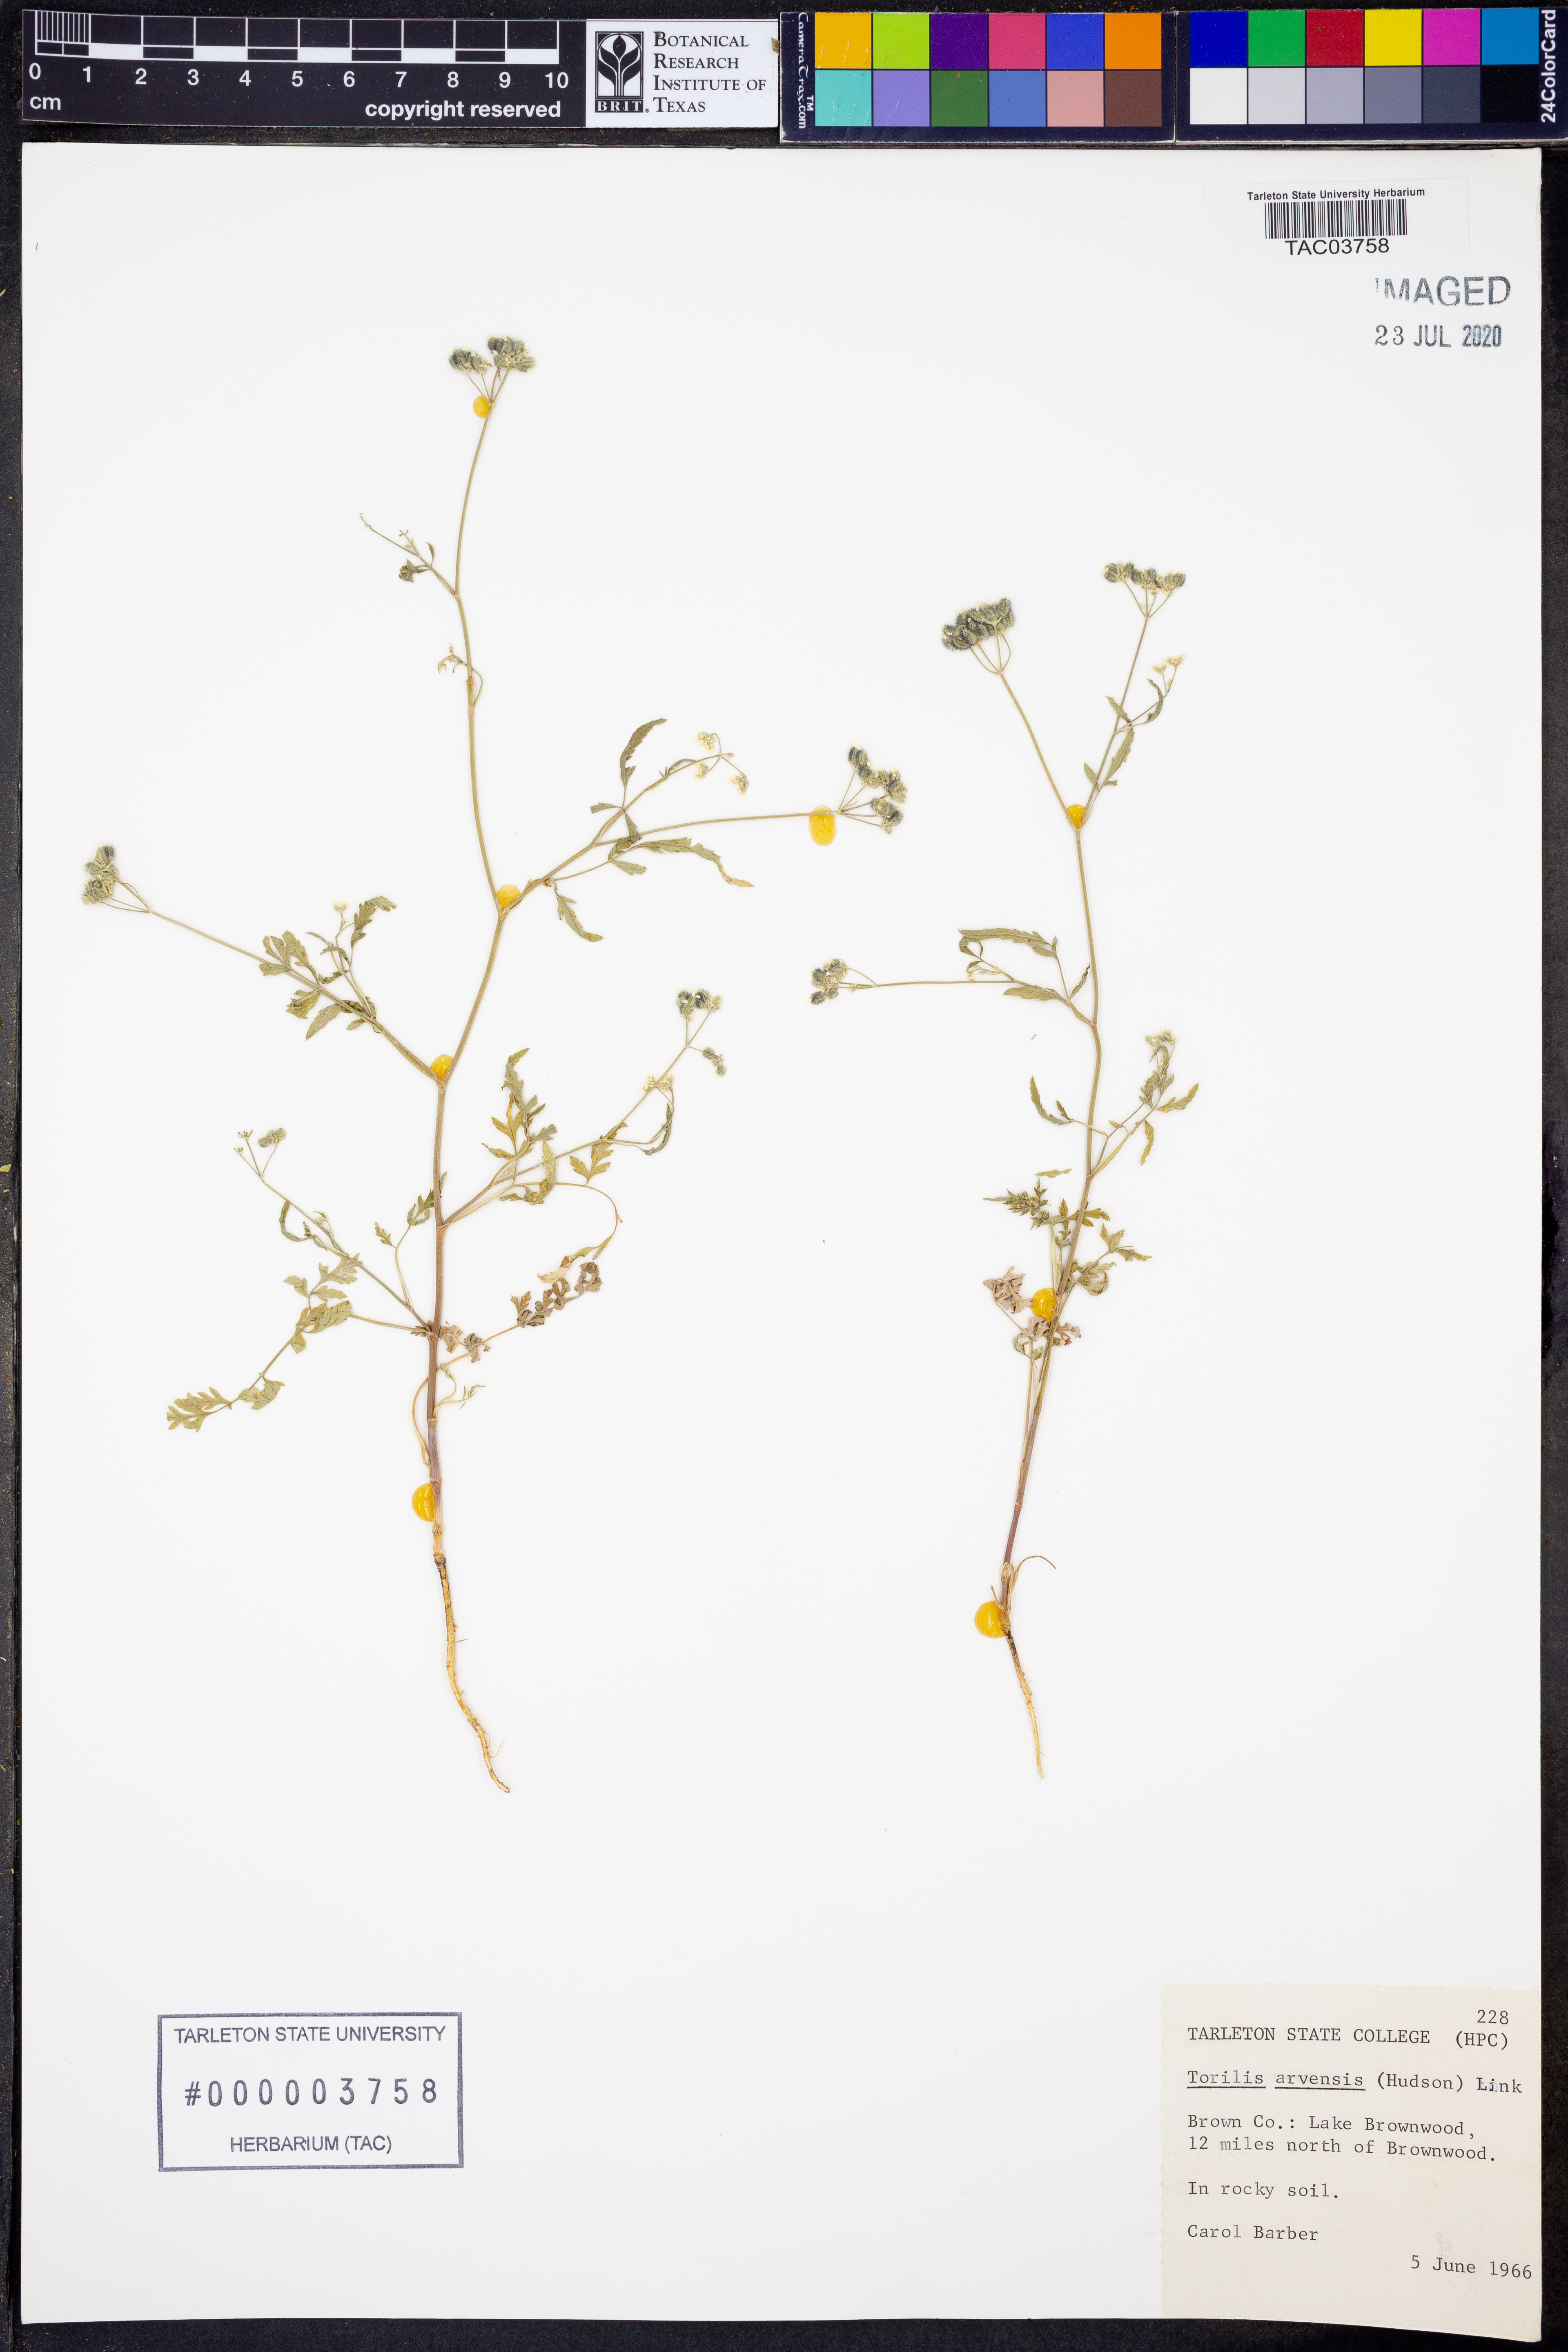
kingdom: Plantae
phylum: Tracheophyta
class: Magnoliopsida
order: Apiales
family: Apiaceae
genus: Torilis
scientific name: Torilis arvensis
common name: Spreading hedge-parsley
